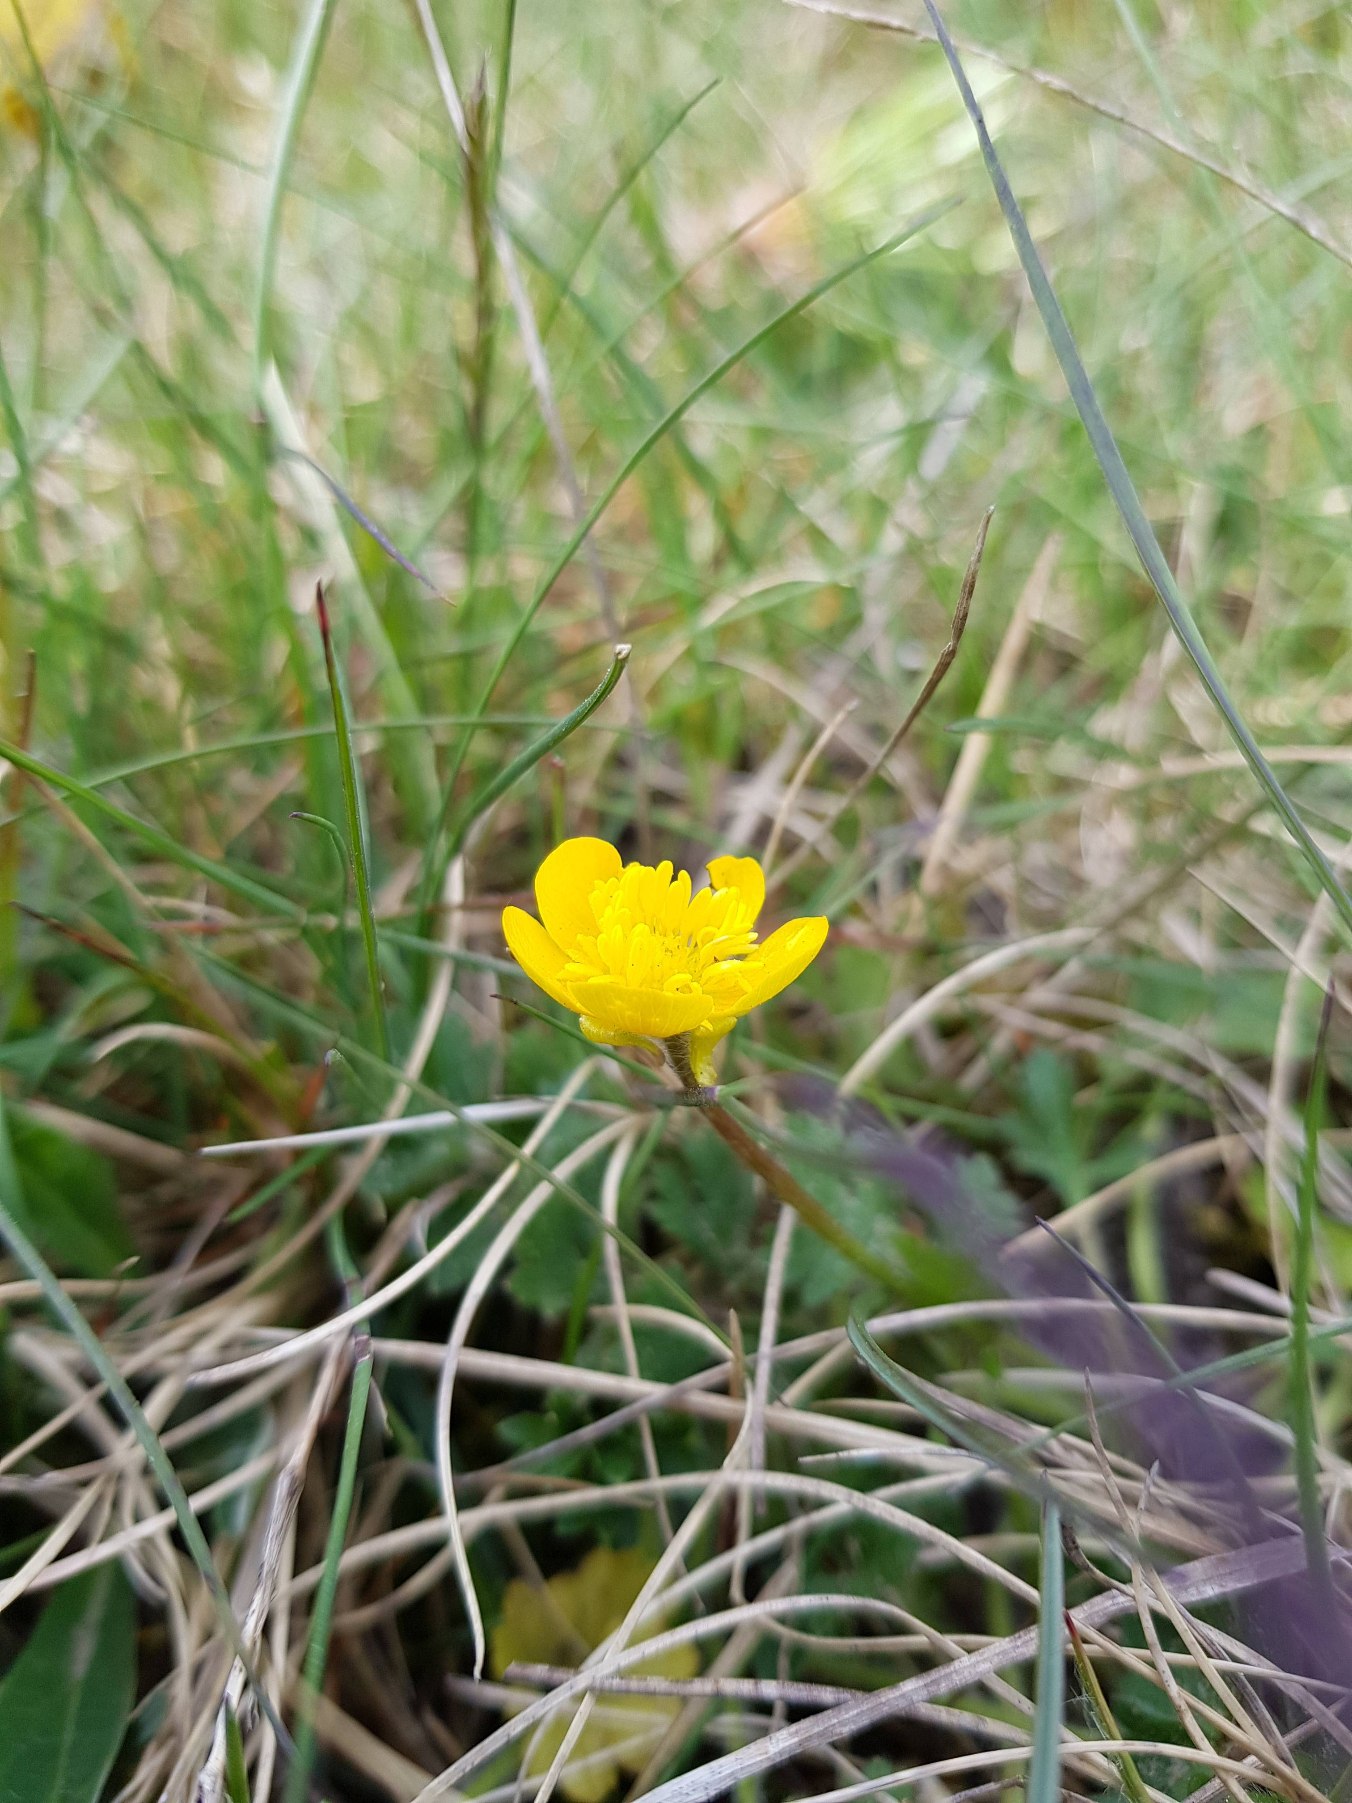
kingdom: Plantae
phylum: Tracheophyta
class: Magnoliopsida
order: Ranunculales
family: Ranunculaceae
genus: Ranunculus
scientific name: Ranunculus bulbosus
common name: Knold-ranunkel
